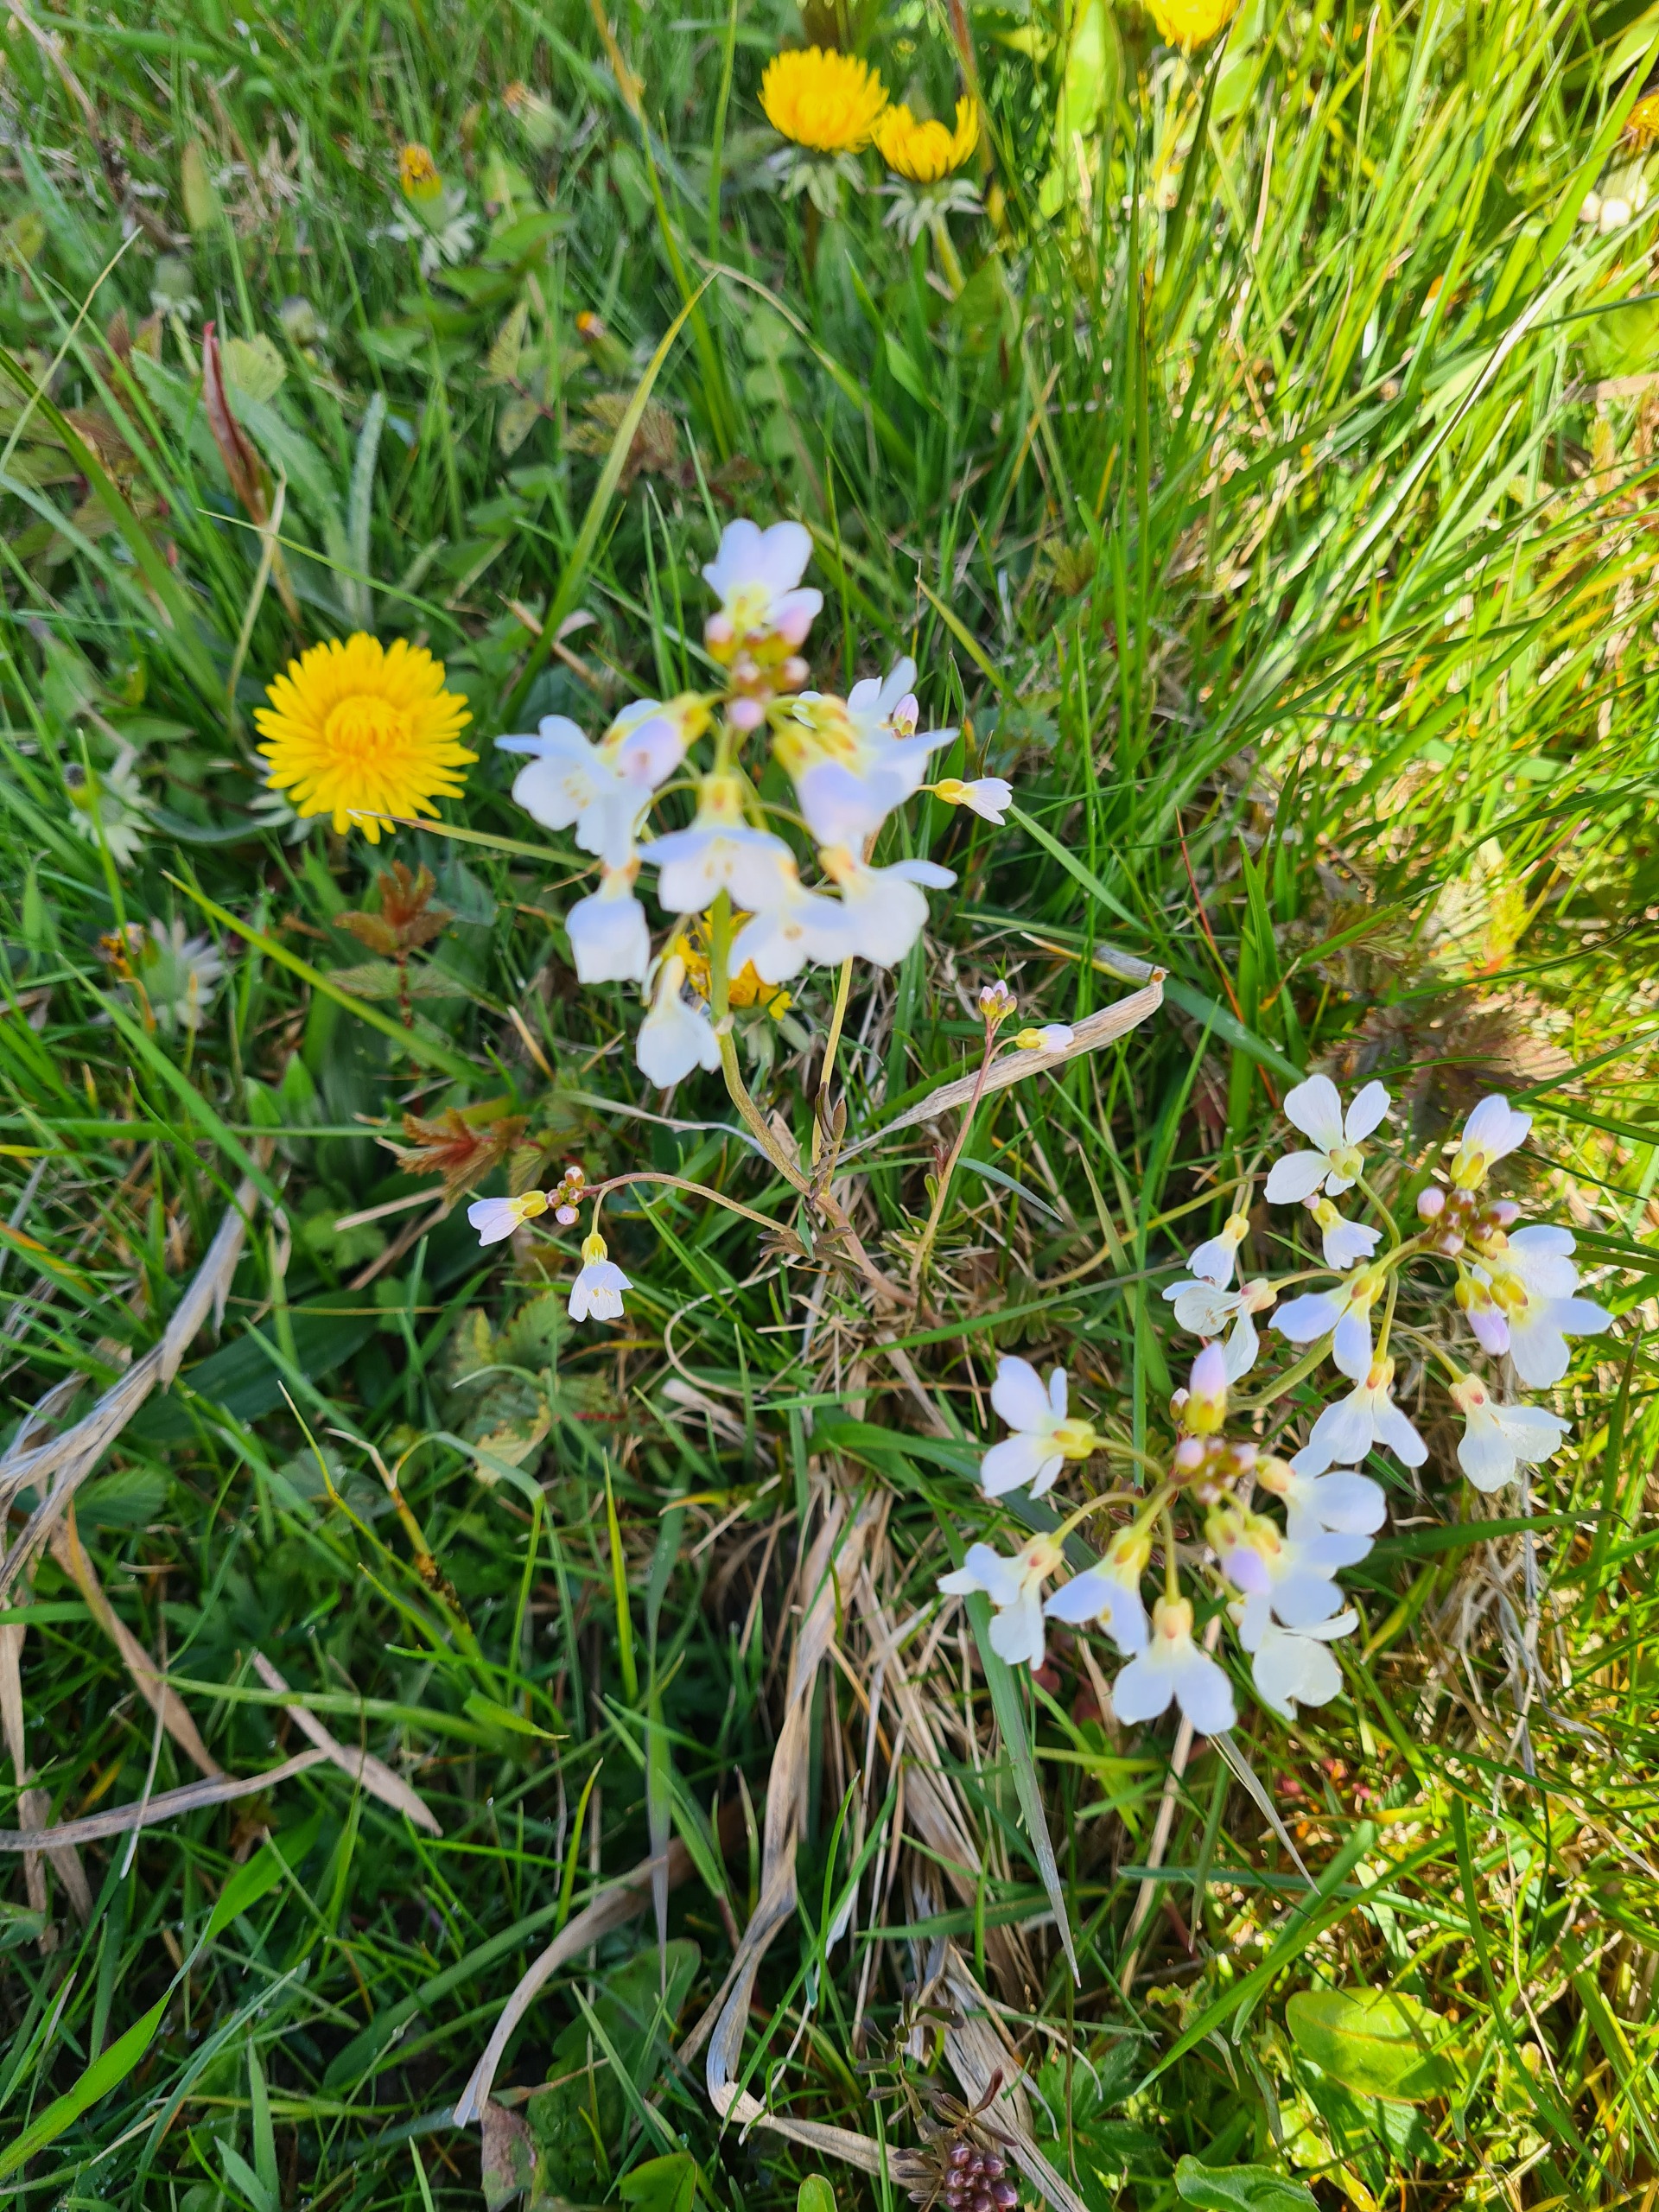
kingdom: Plantae
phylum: Tracheophyta
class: Magnoliopsida
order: Brassicales
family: Brassicaceae
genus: Cardamine
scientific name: Cardamine pratensis
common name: Engkarse
